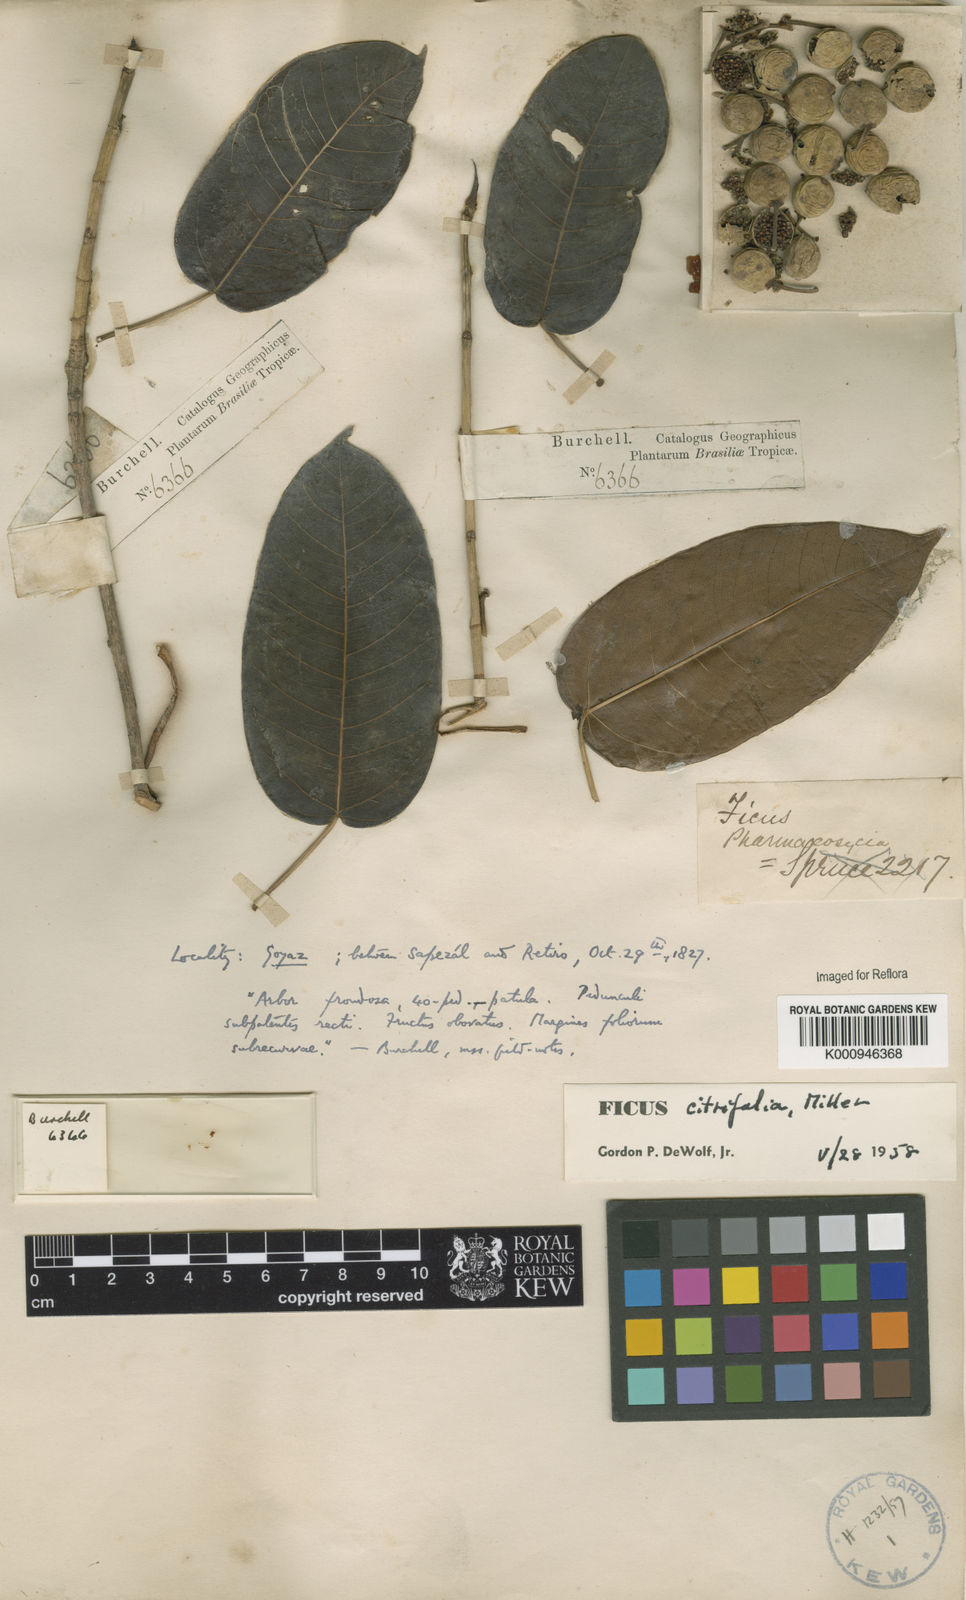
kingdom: Plantae
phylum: Tracheophyta
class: Magnoliopsida
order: Rosales
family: Moraceae
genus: Ficus
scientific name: Ficus citrifolia
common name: Strangler fig
